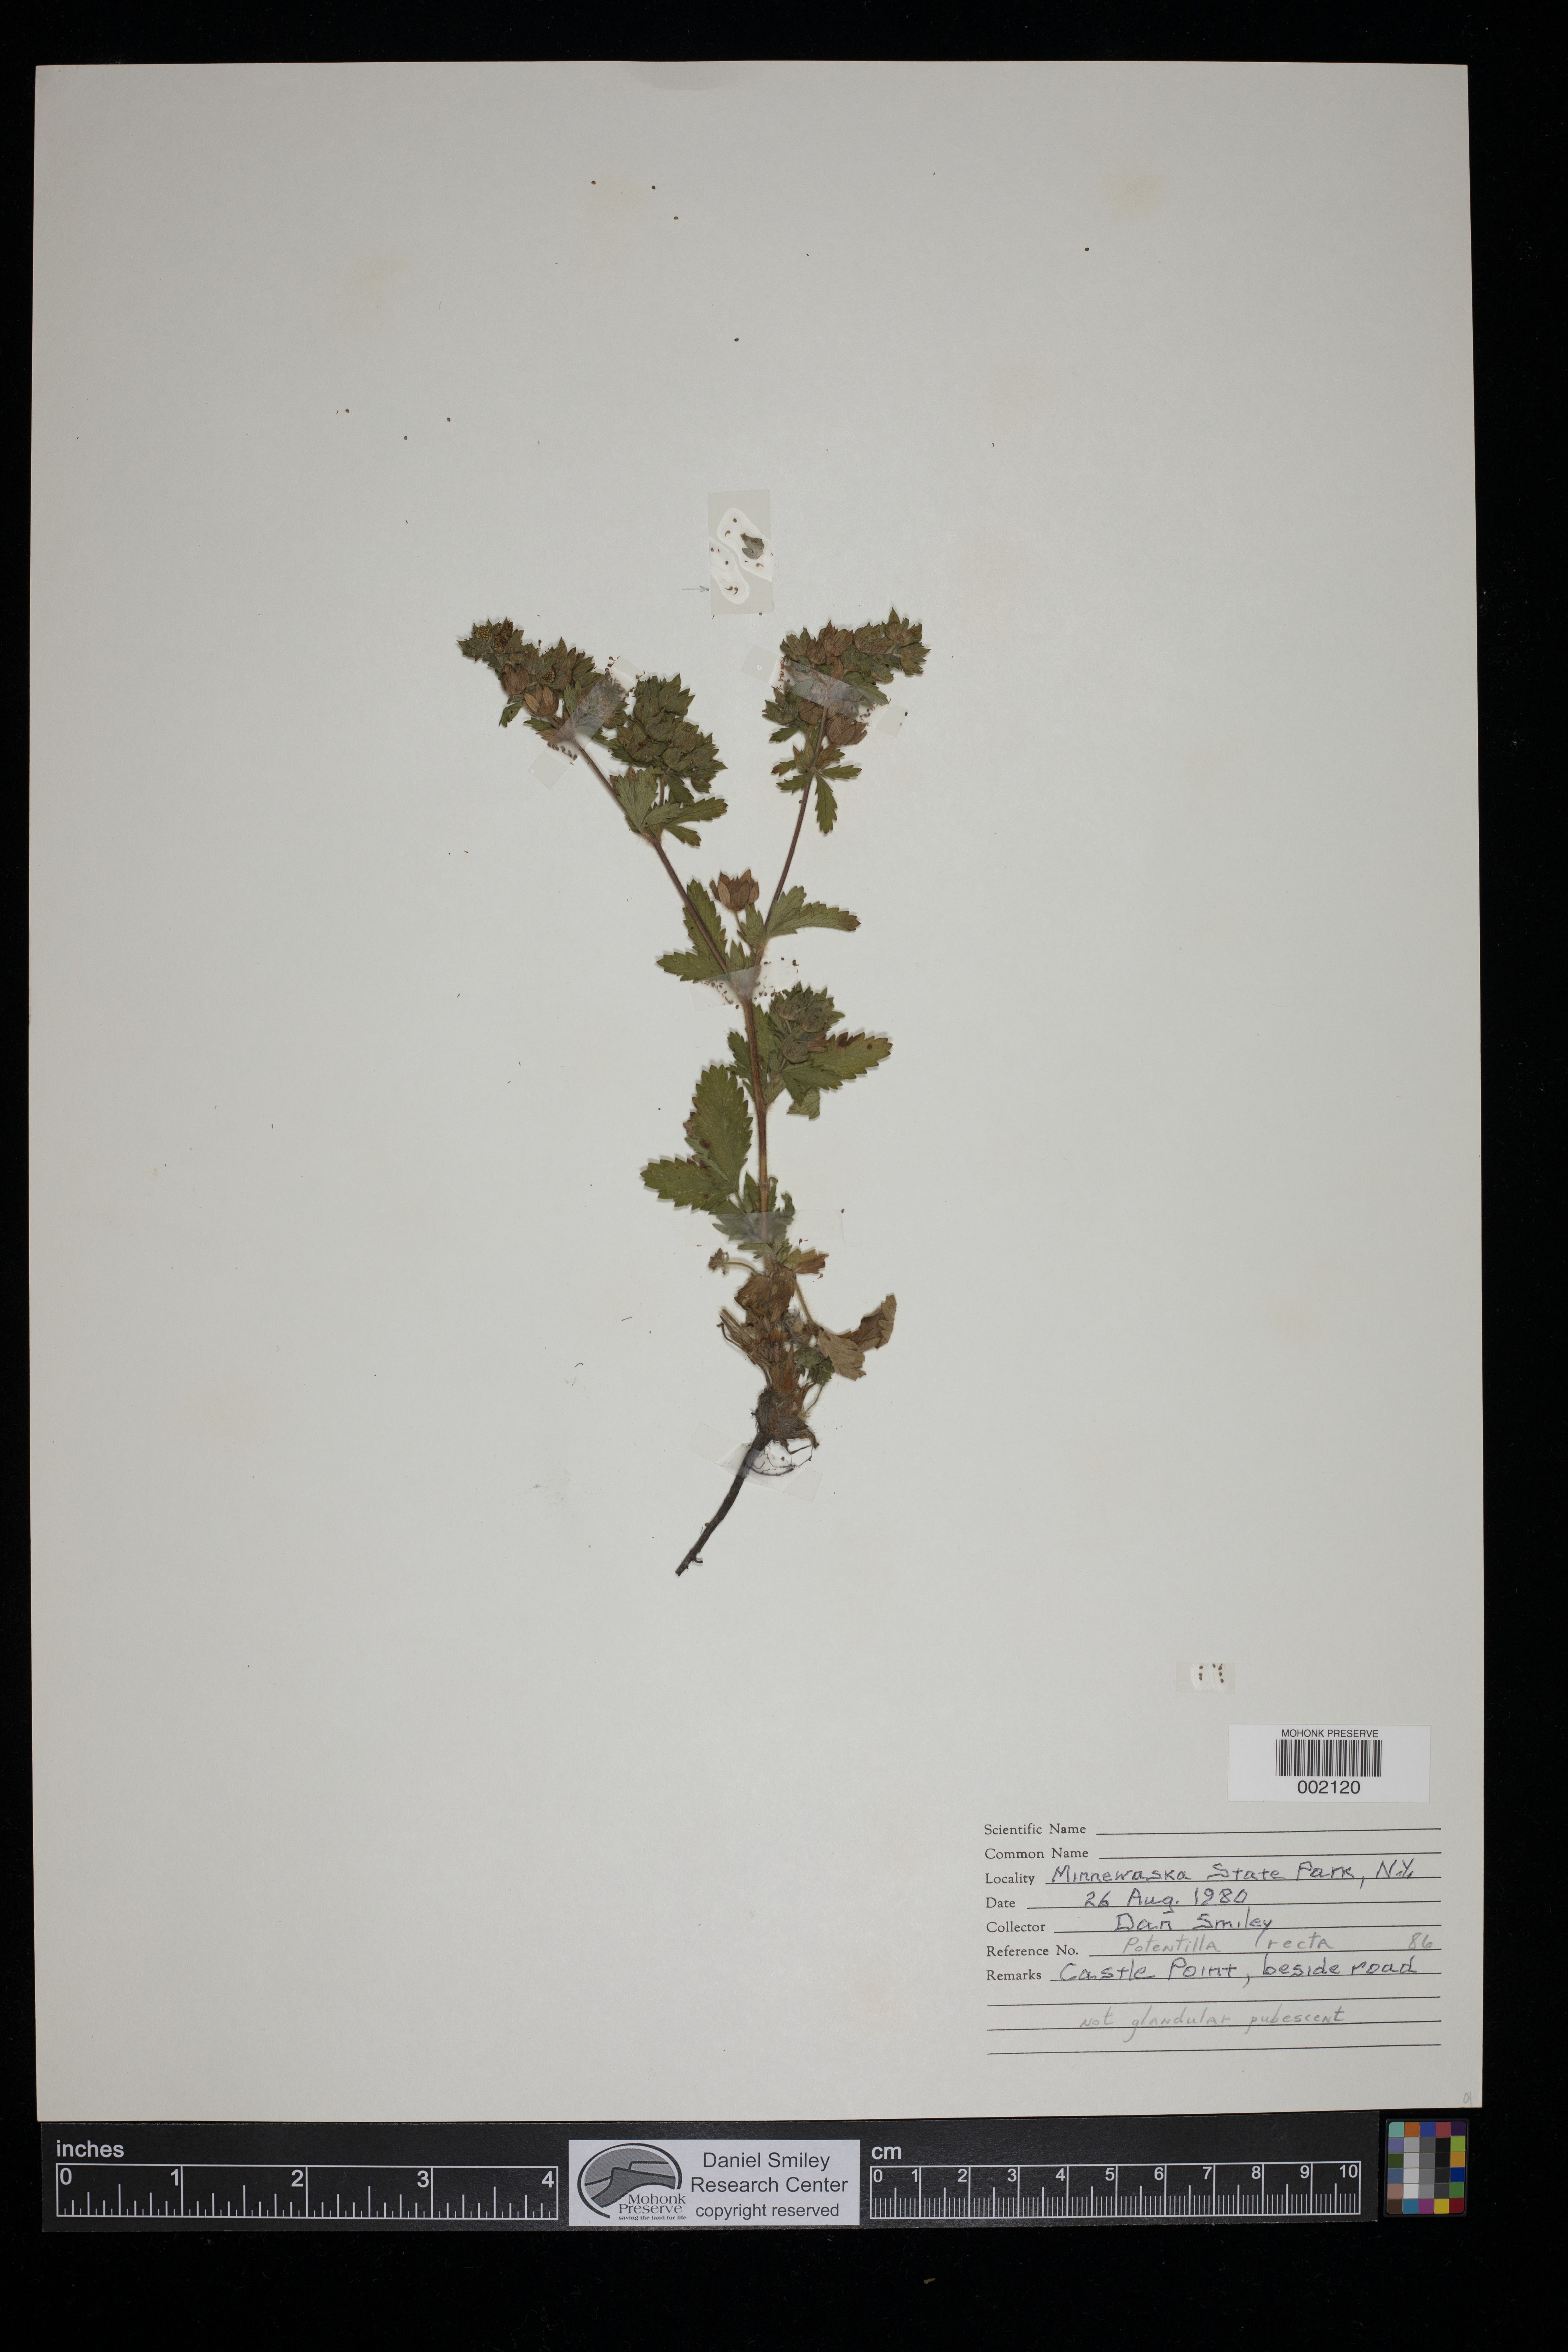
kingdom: Plantae
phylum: Tracheophyta
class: Magnoliopsida
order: Rosales
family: Rosaceae
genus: Potentilla
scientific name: Potentilla recta
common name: Sulphur cinquefoil
